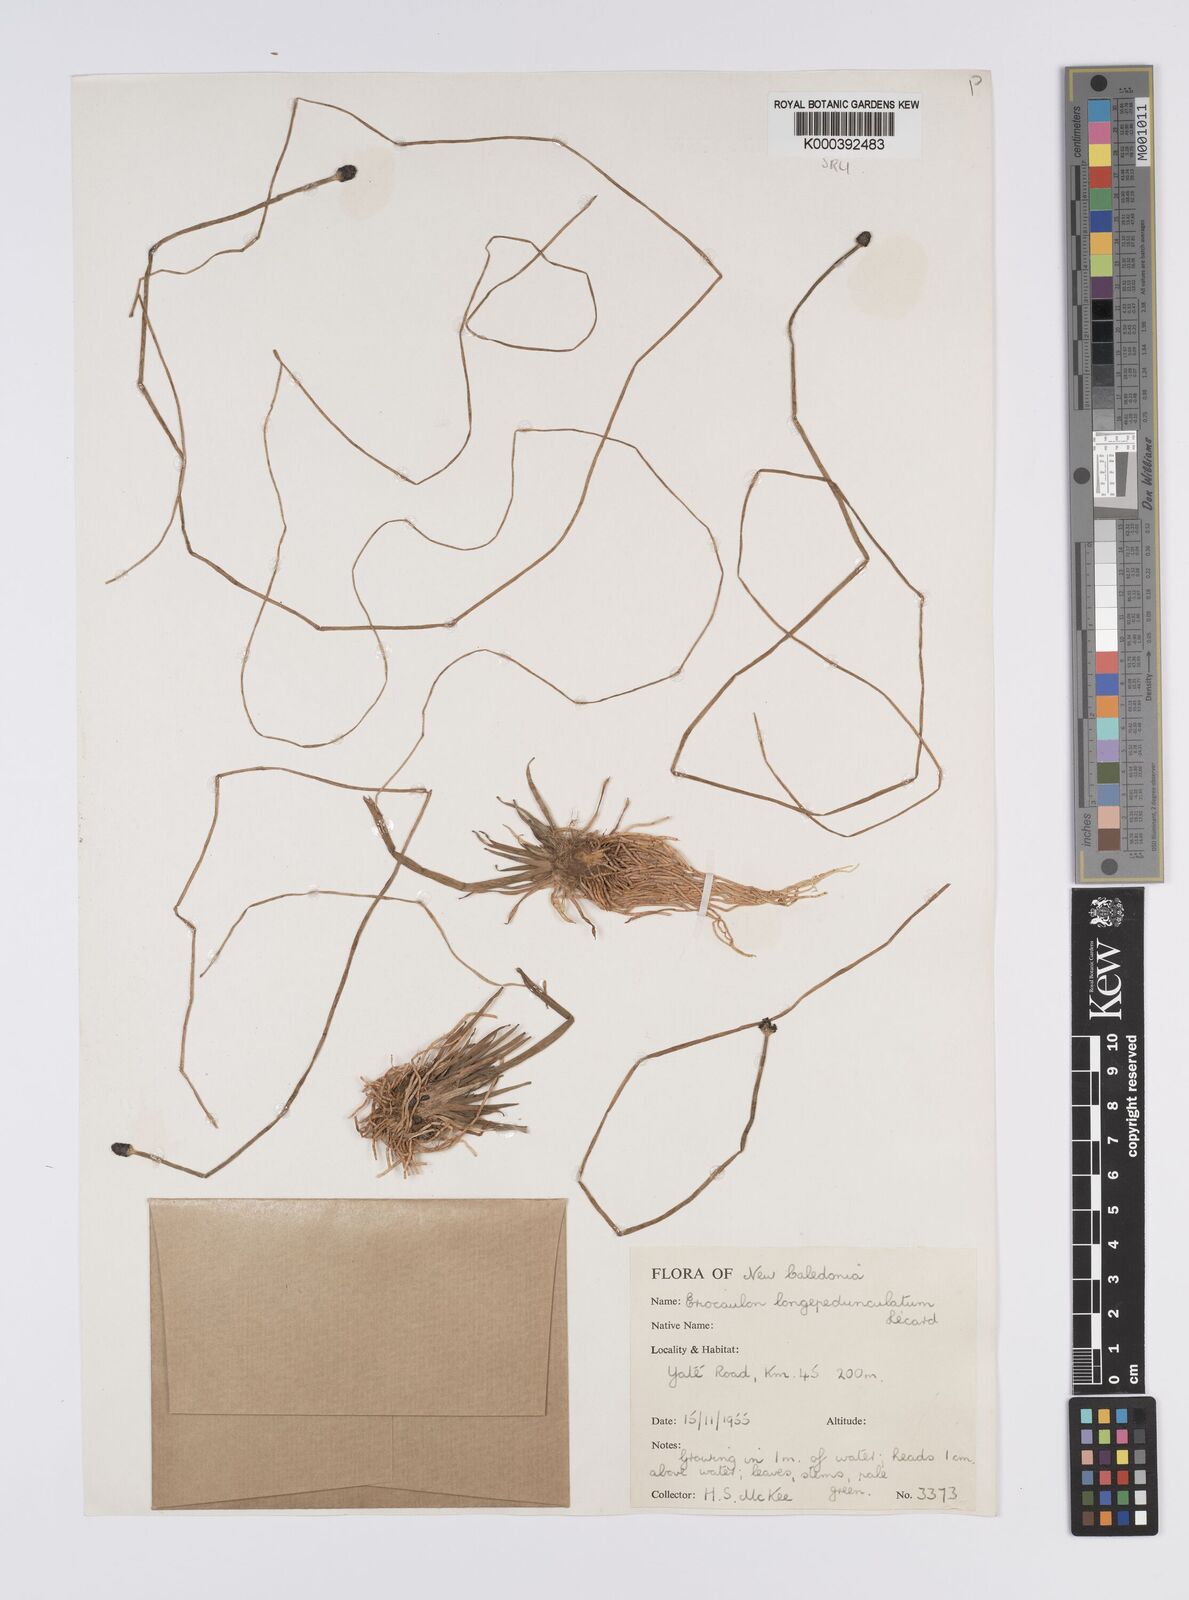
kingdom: Plantae
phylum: Tracheophyta
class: Liliopsida
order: Poales
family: Eriocaulaceae
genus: Eriocaulon
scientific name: Eriocaulon
